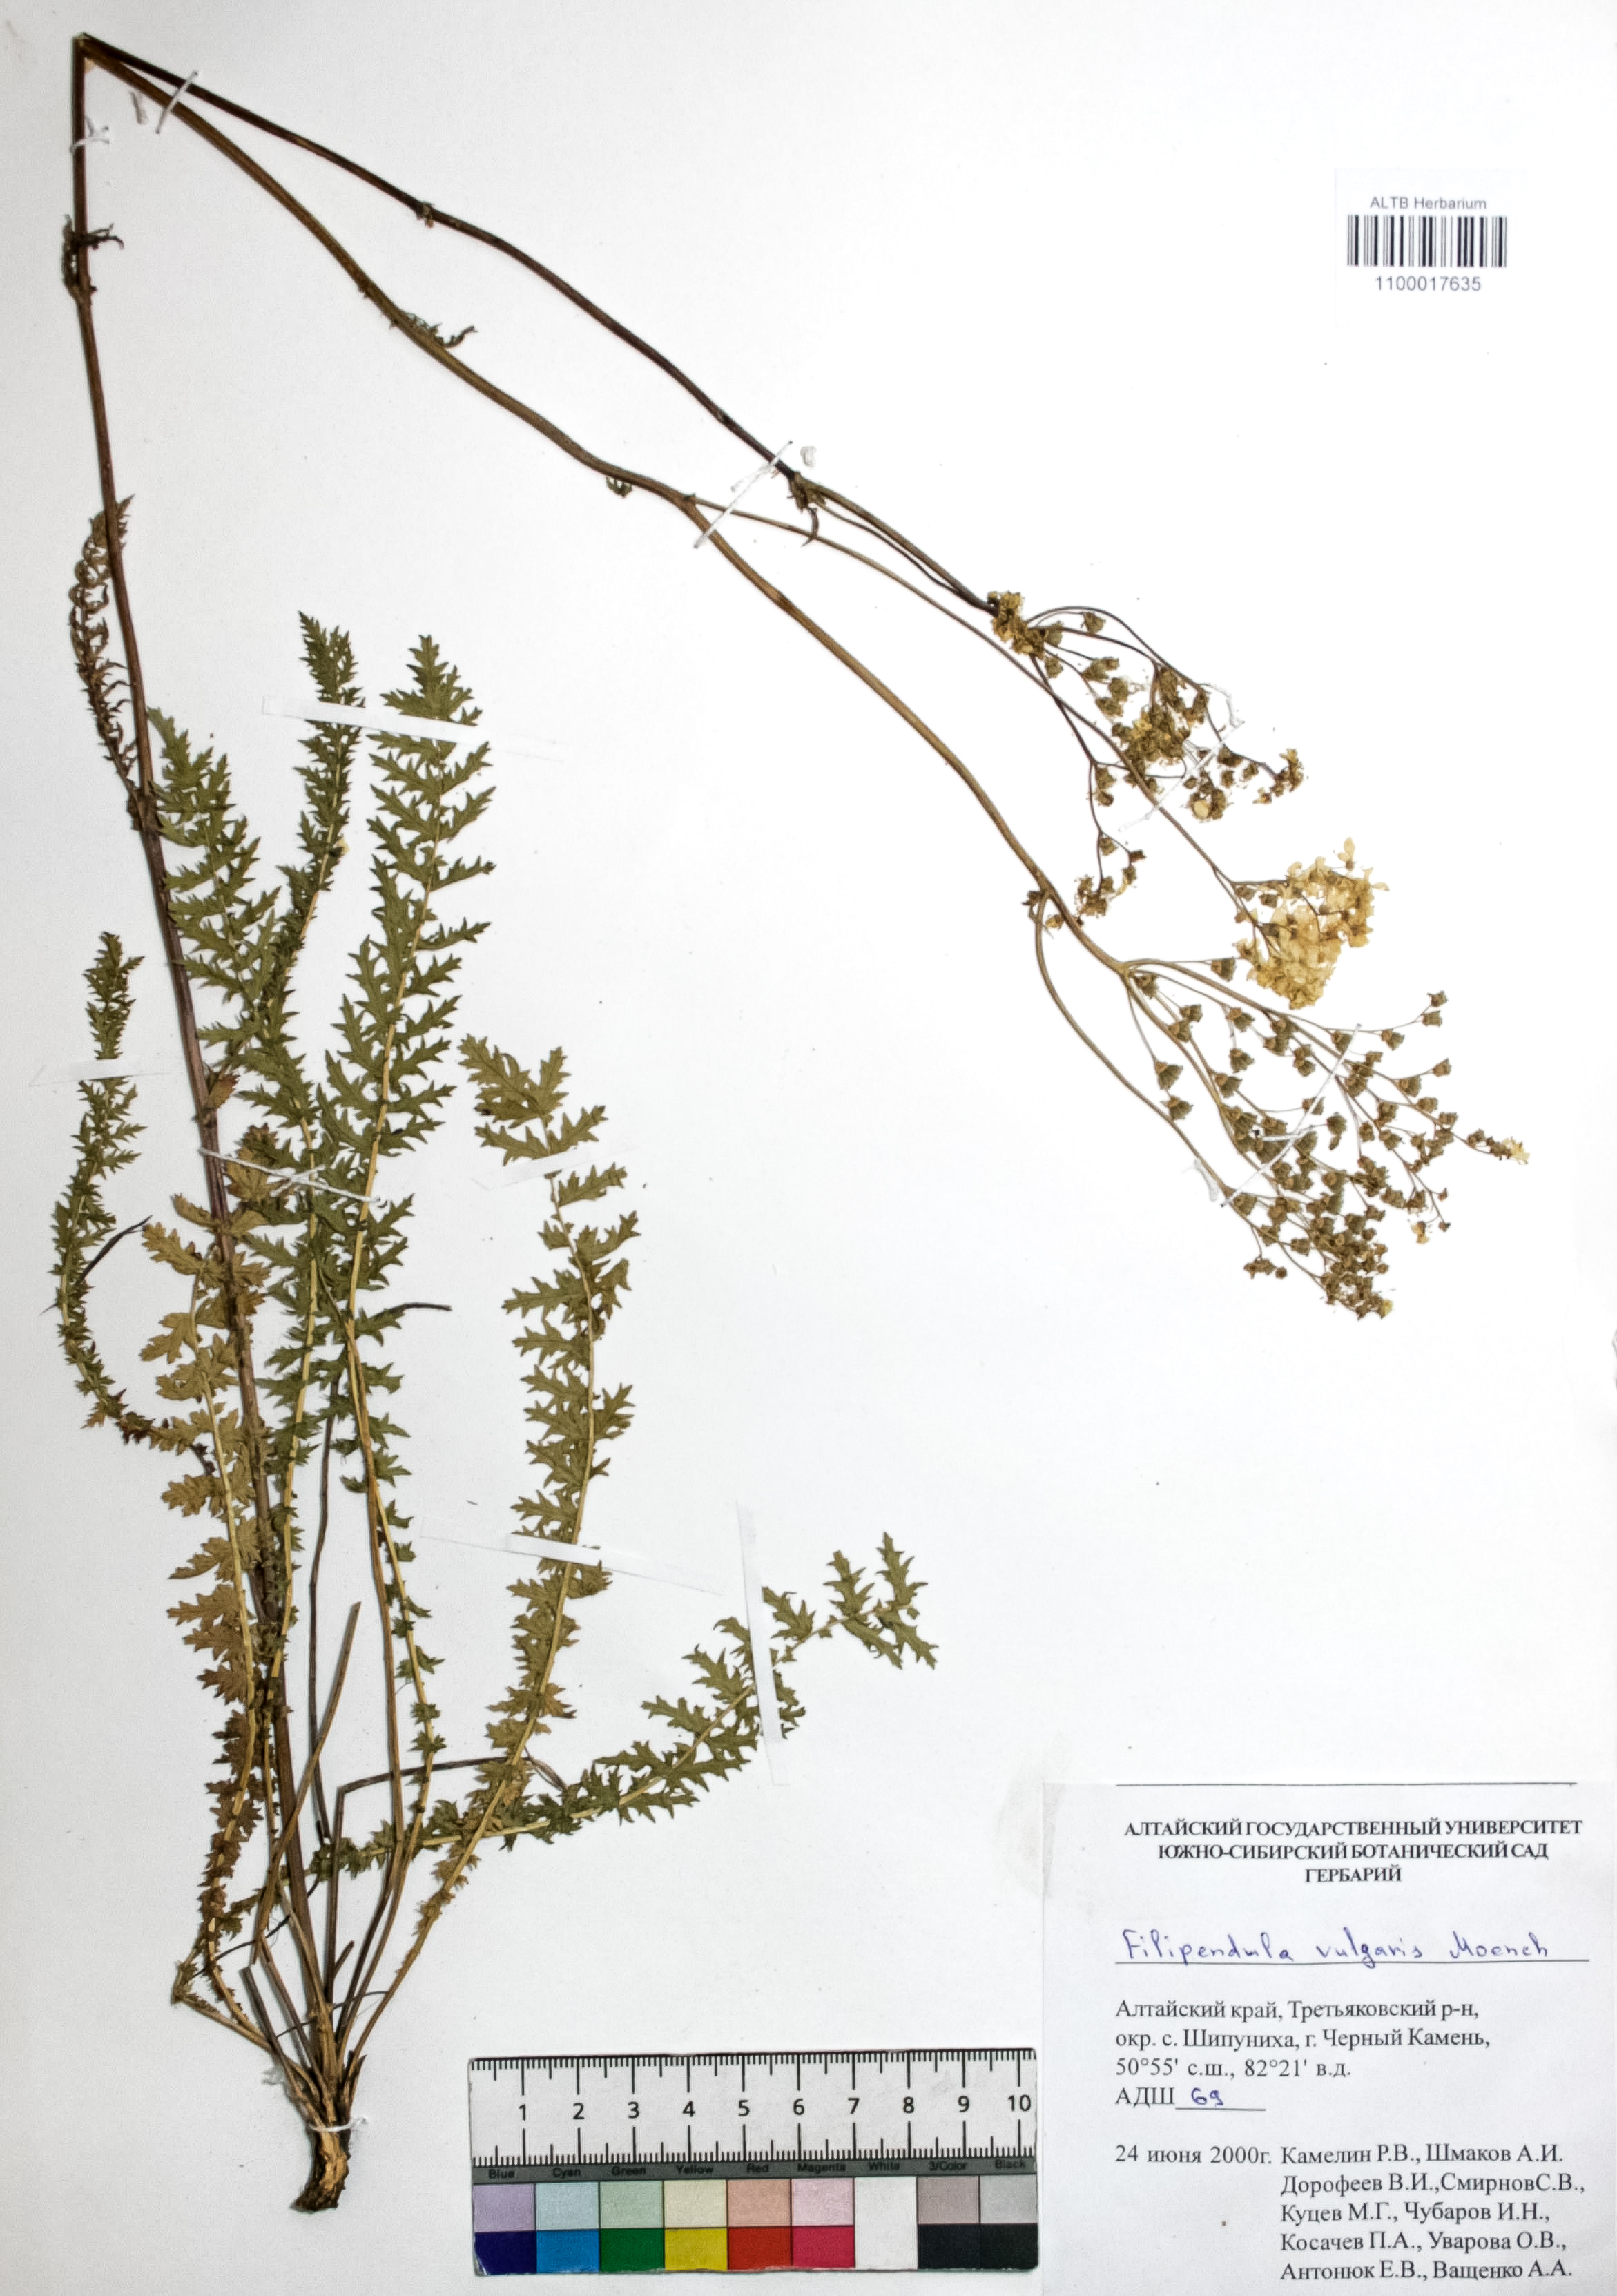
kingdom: Plantae
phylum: Tracheophyta
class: Magnoliopsida
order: Rosales
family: Rosaceae
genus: Filipendula
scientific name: Filipendula vulgaris
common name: Dropwort
